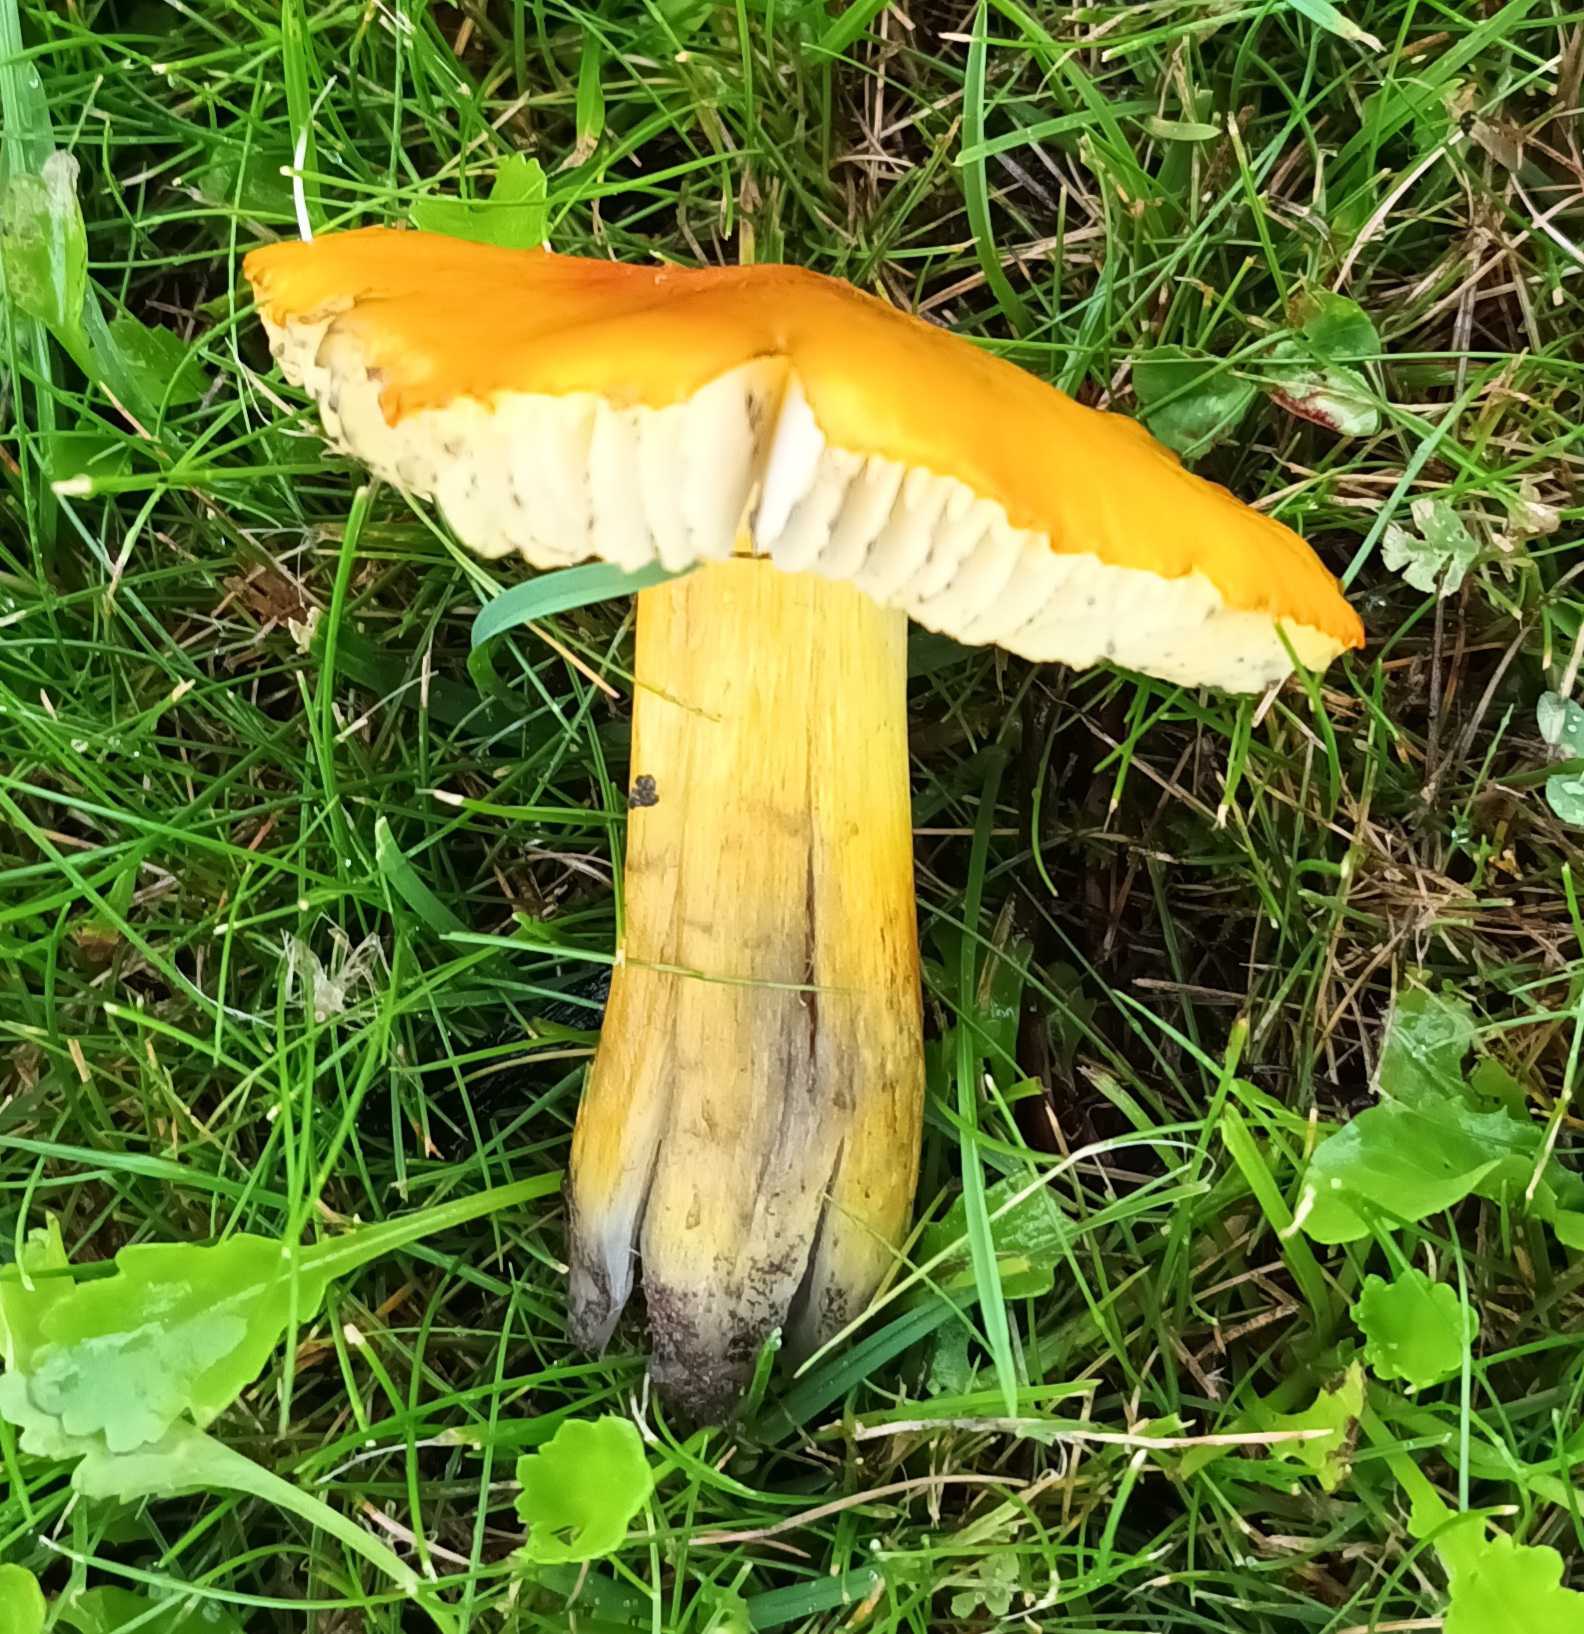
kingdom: Fungi
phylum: Basidiomycota
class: Agaricomycetes
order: Agaricales
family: Hygrophoraceae
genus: Hygrocybe
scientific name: Hygrocybe conica
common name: Kegle-vokshat
